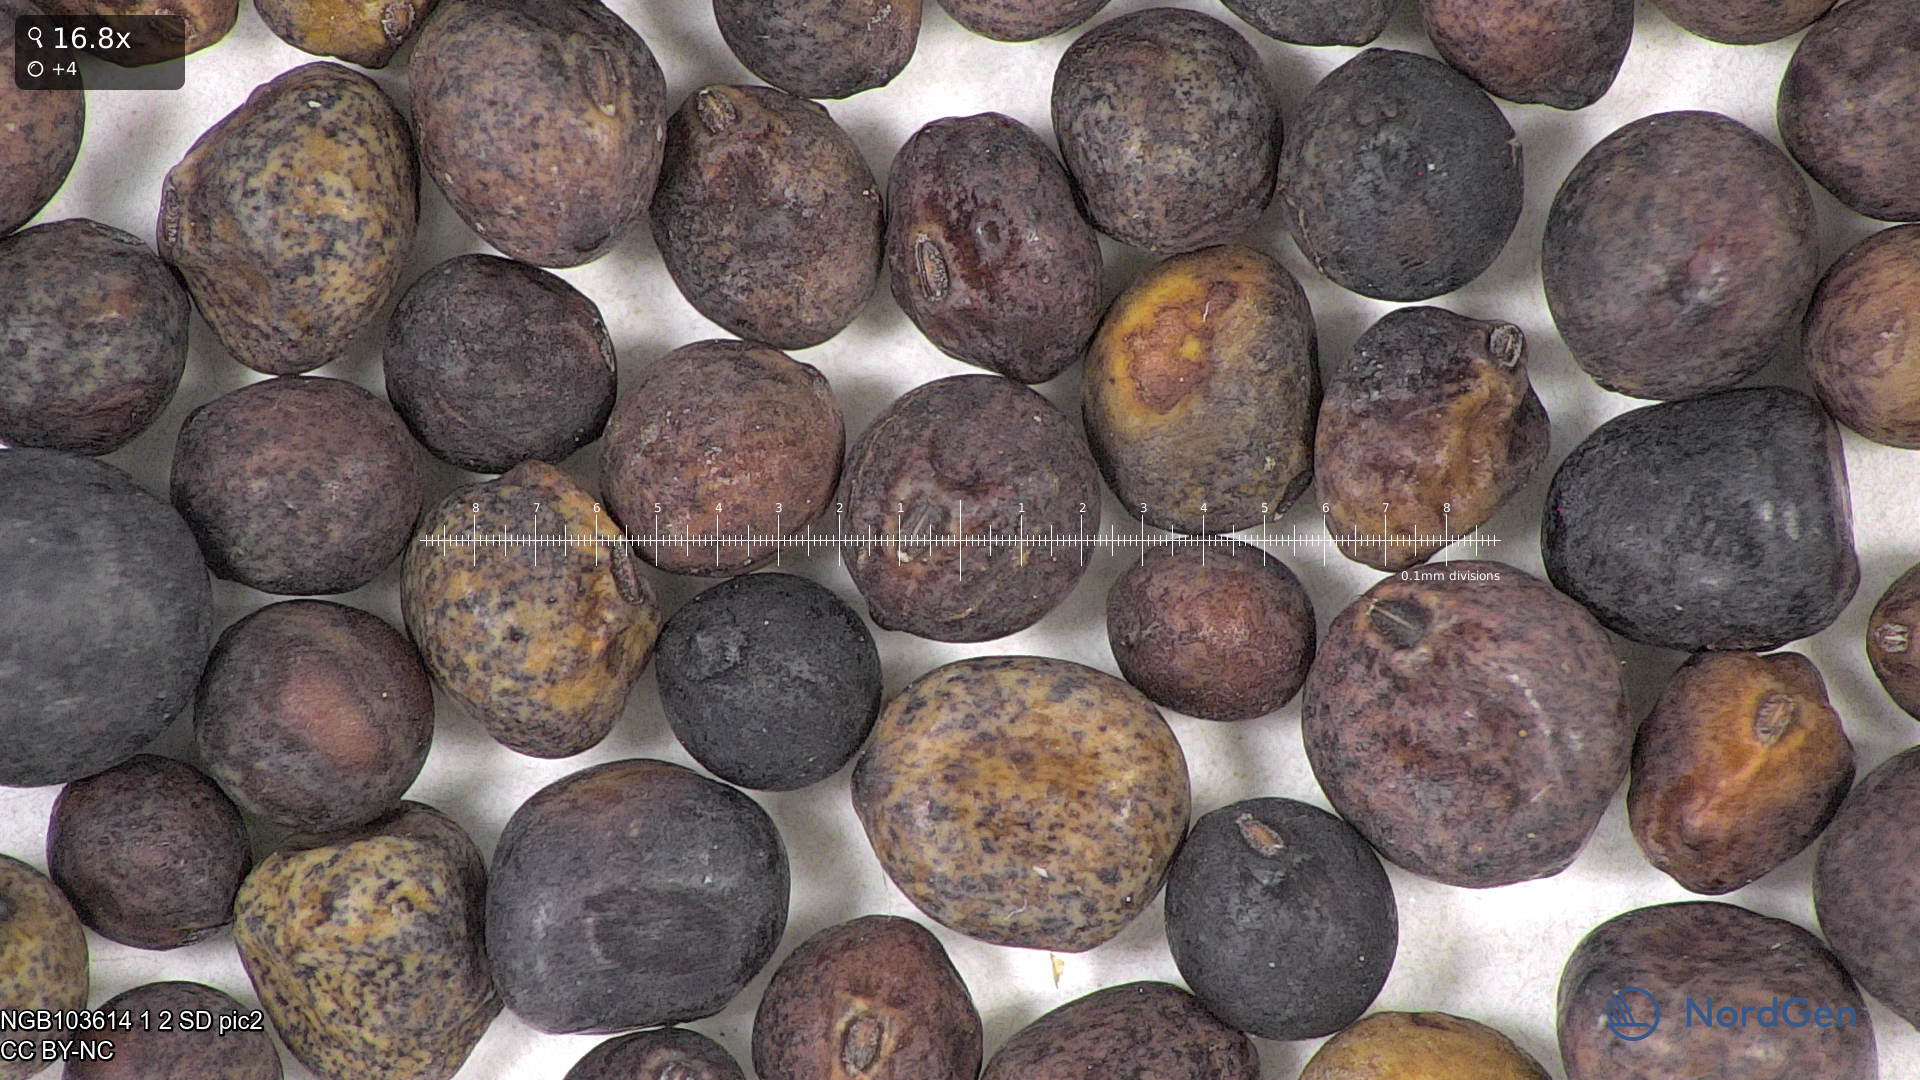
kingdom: Plantae
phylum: Tracheophyta
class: Magnoliopsida
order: Fabales
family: Fabaceae
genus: Lathyrus
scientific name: Lathyrus oleraceus
